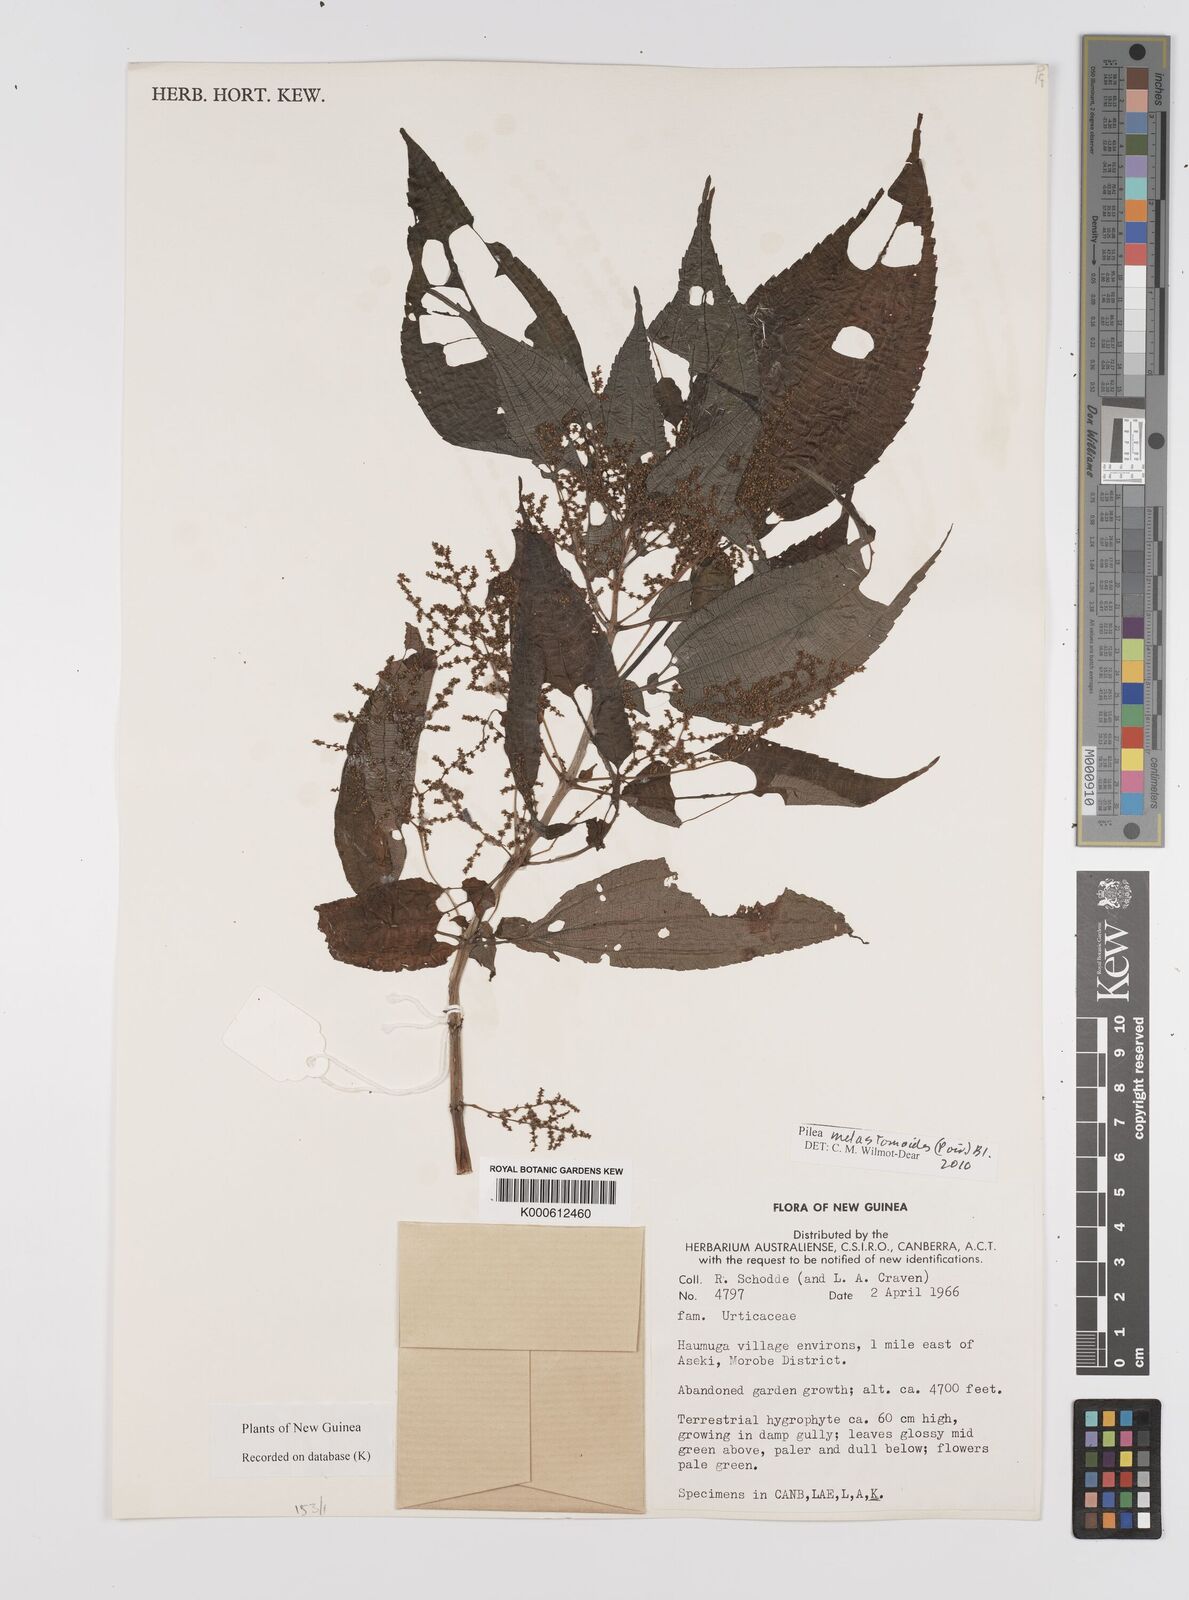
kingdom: Plantae
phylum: Tracheophyta
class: Magnoliopsida
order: Rosales
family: Urticaceae
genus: Pilea
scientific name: Pilea
